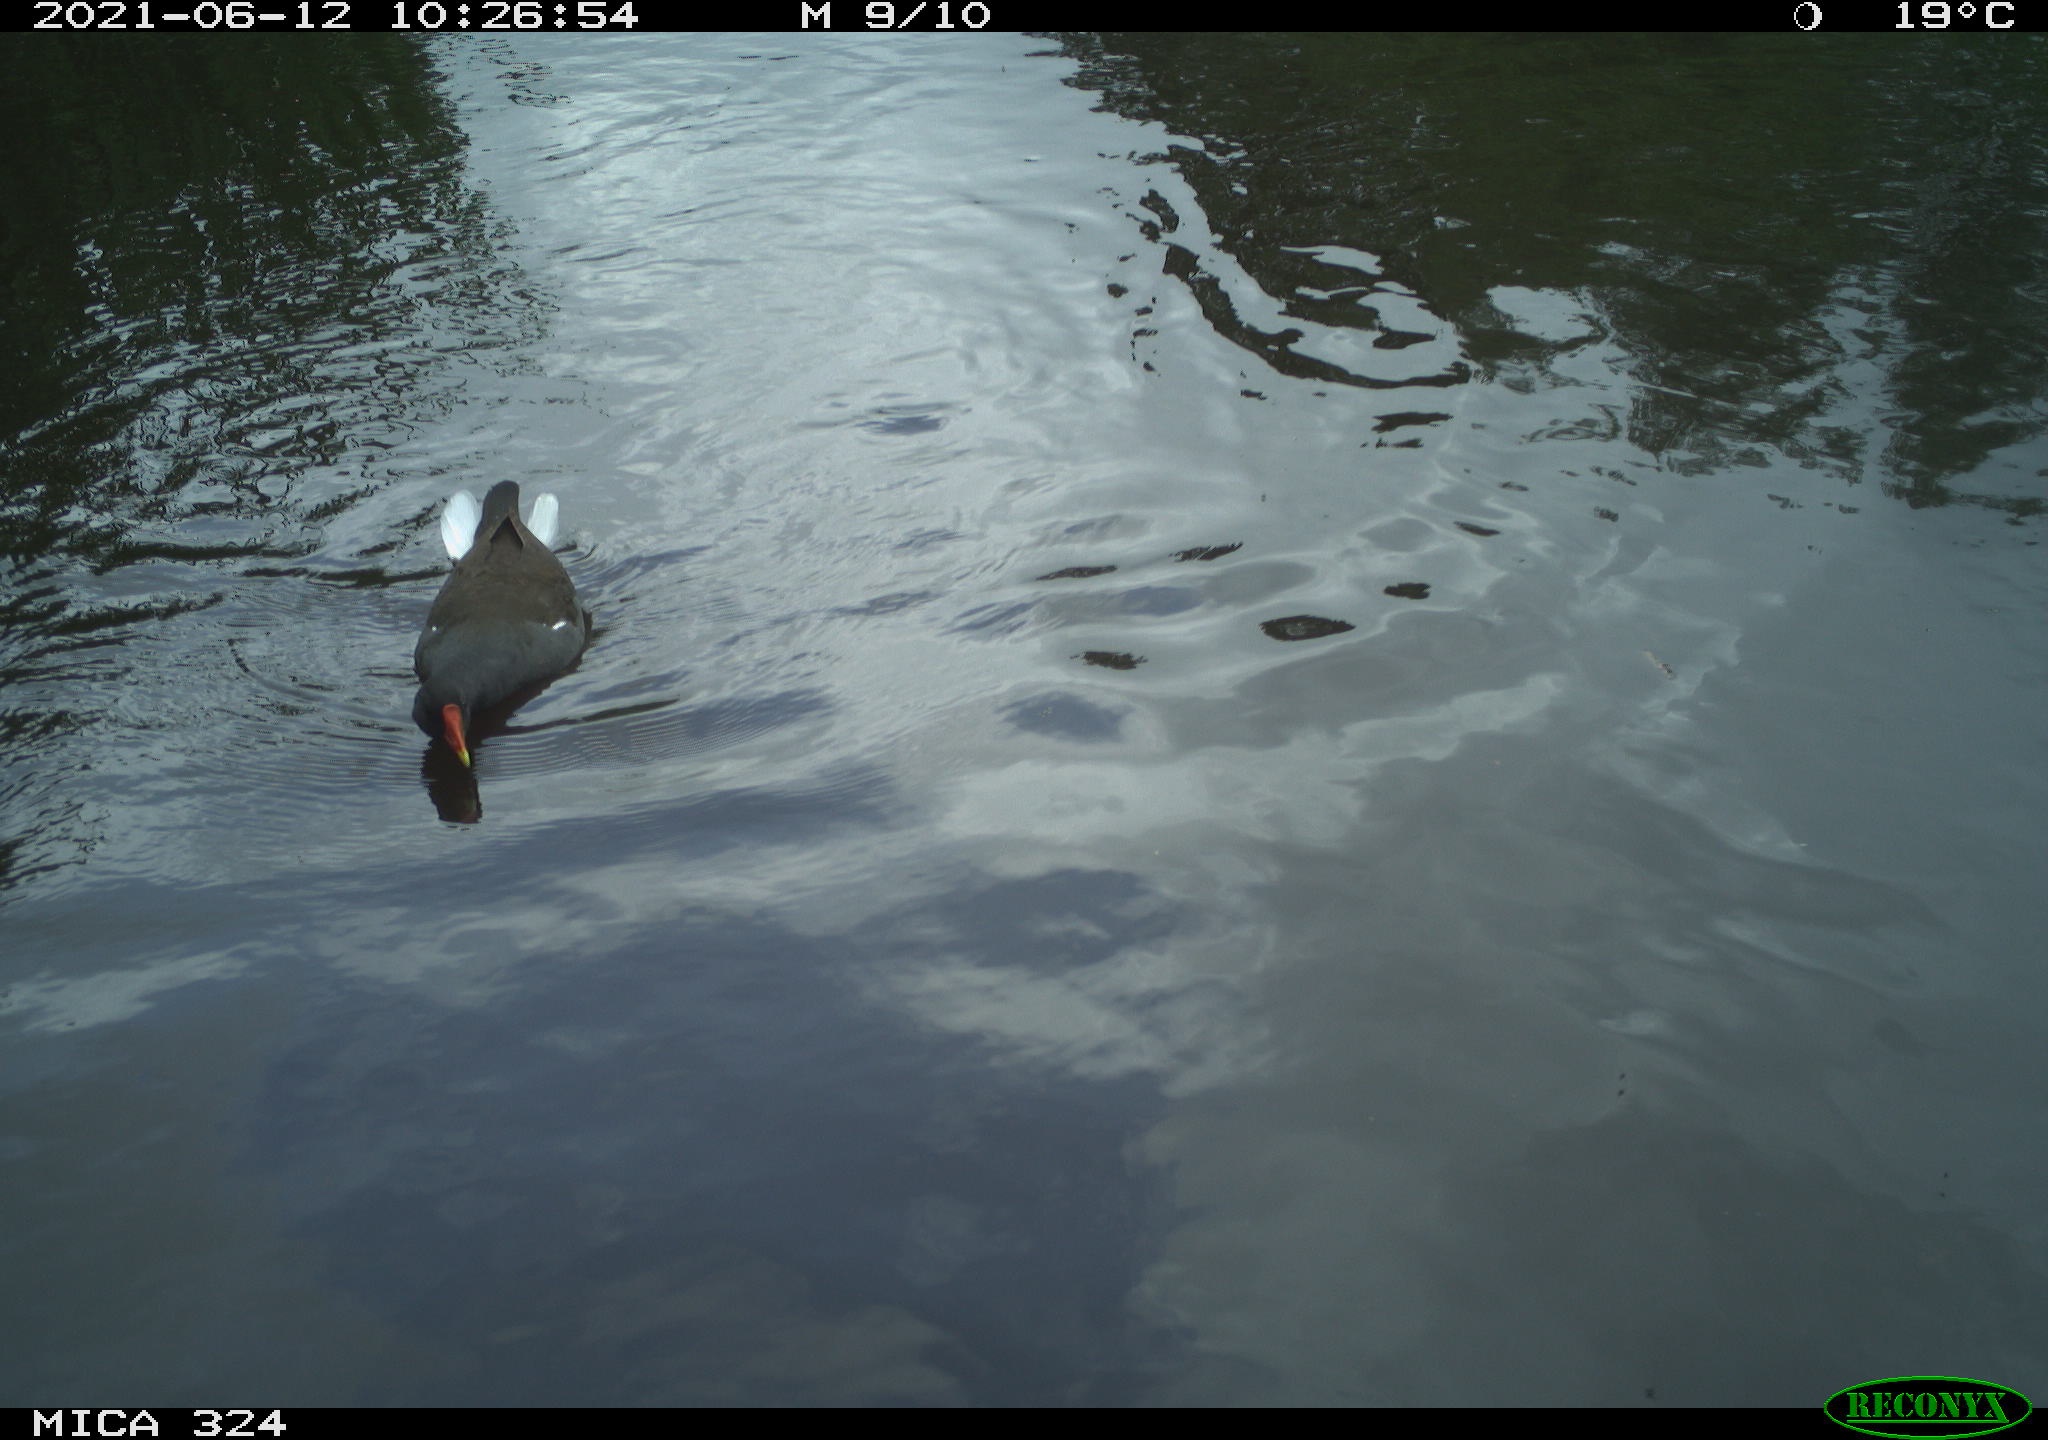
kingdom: Animalia
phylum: Chordata
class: Aves
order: Gruiformes
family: Rallidae
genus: Gallinula
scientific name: Gallinula chloropus
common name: Common moorhen
